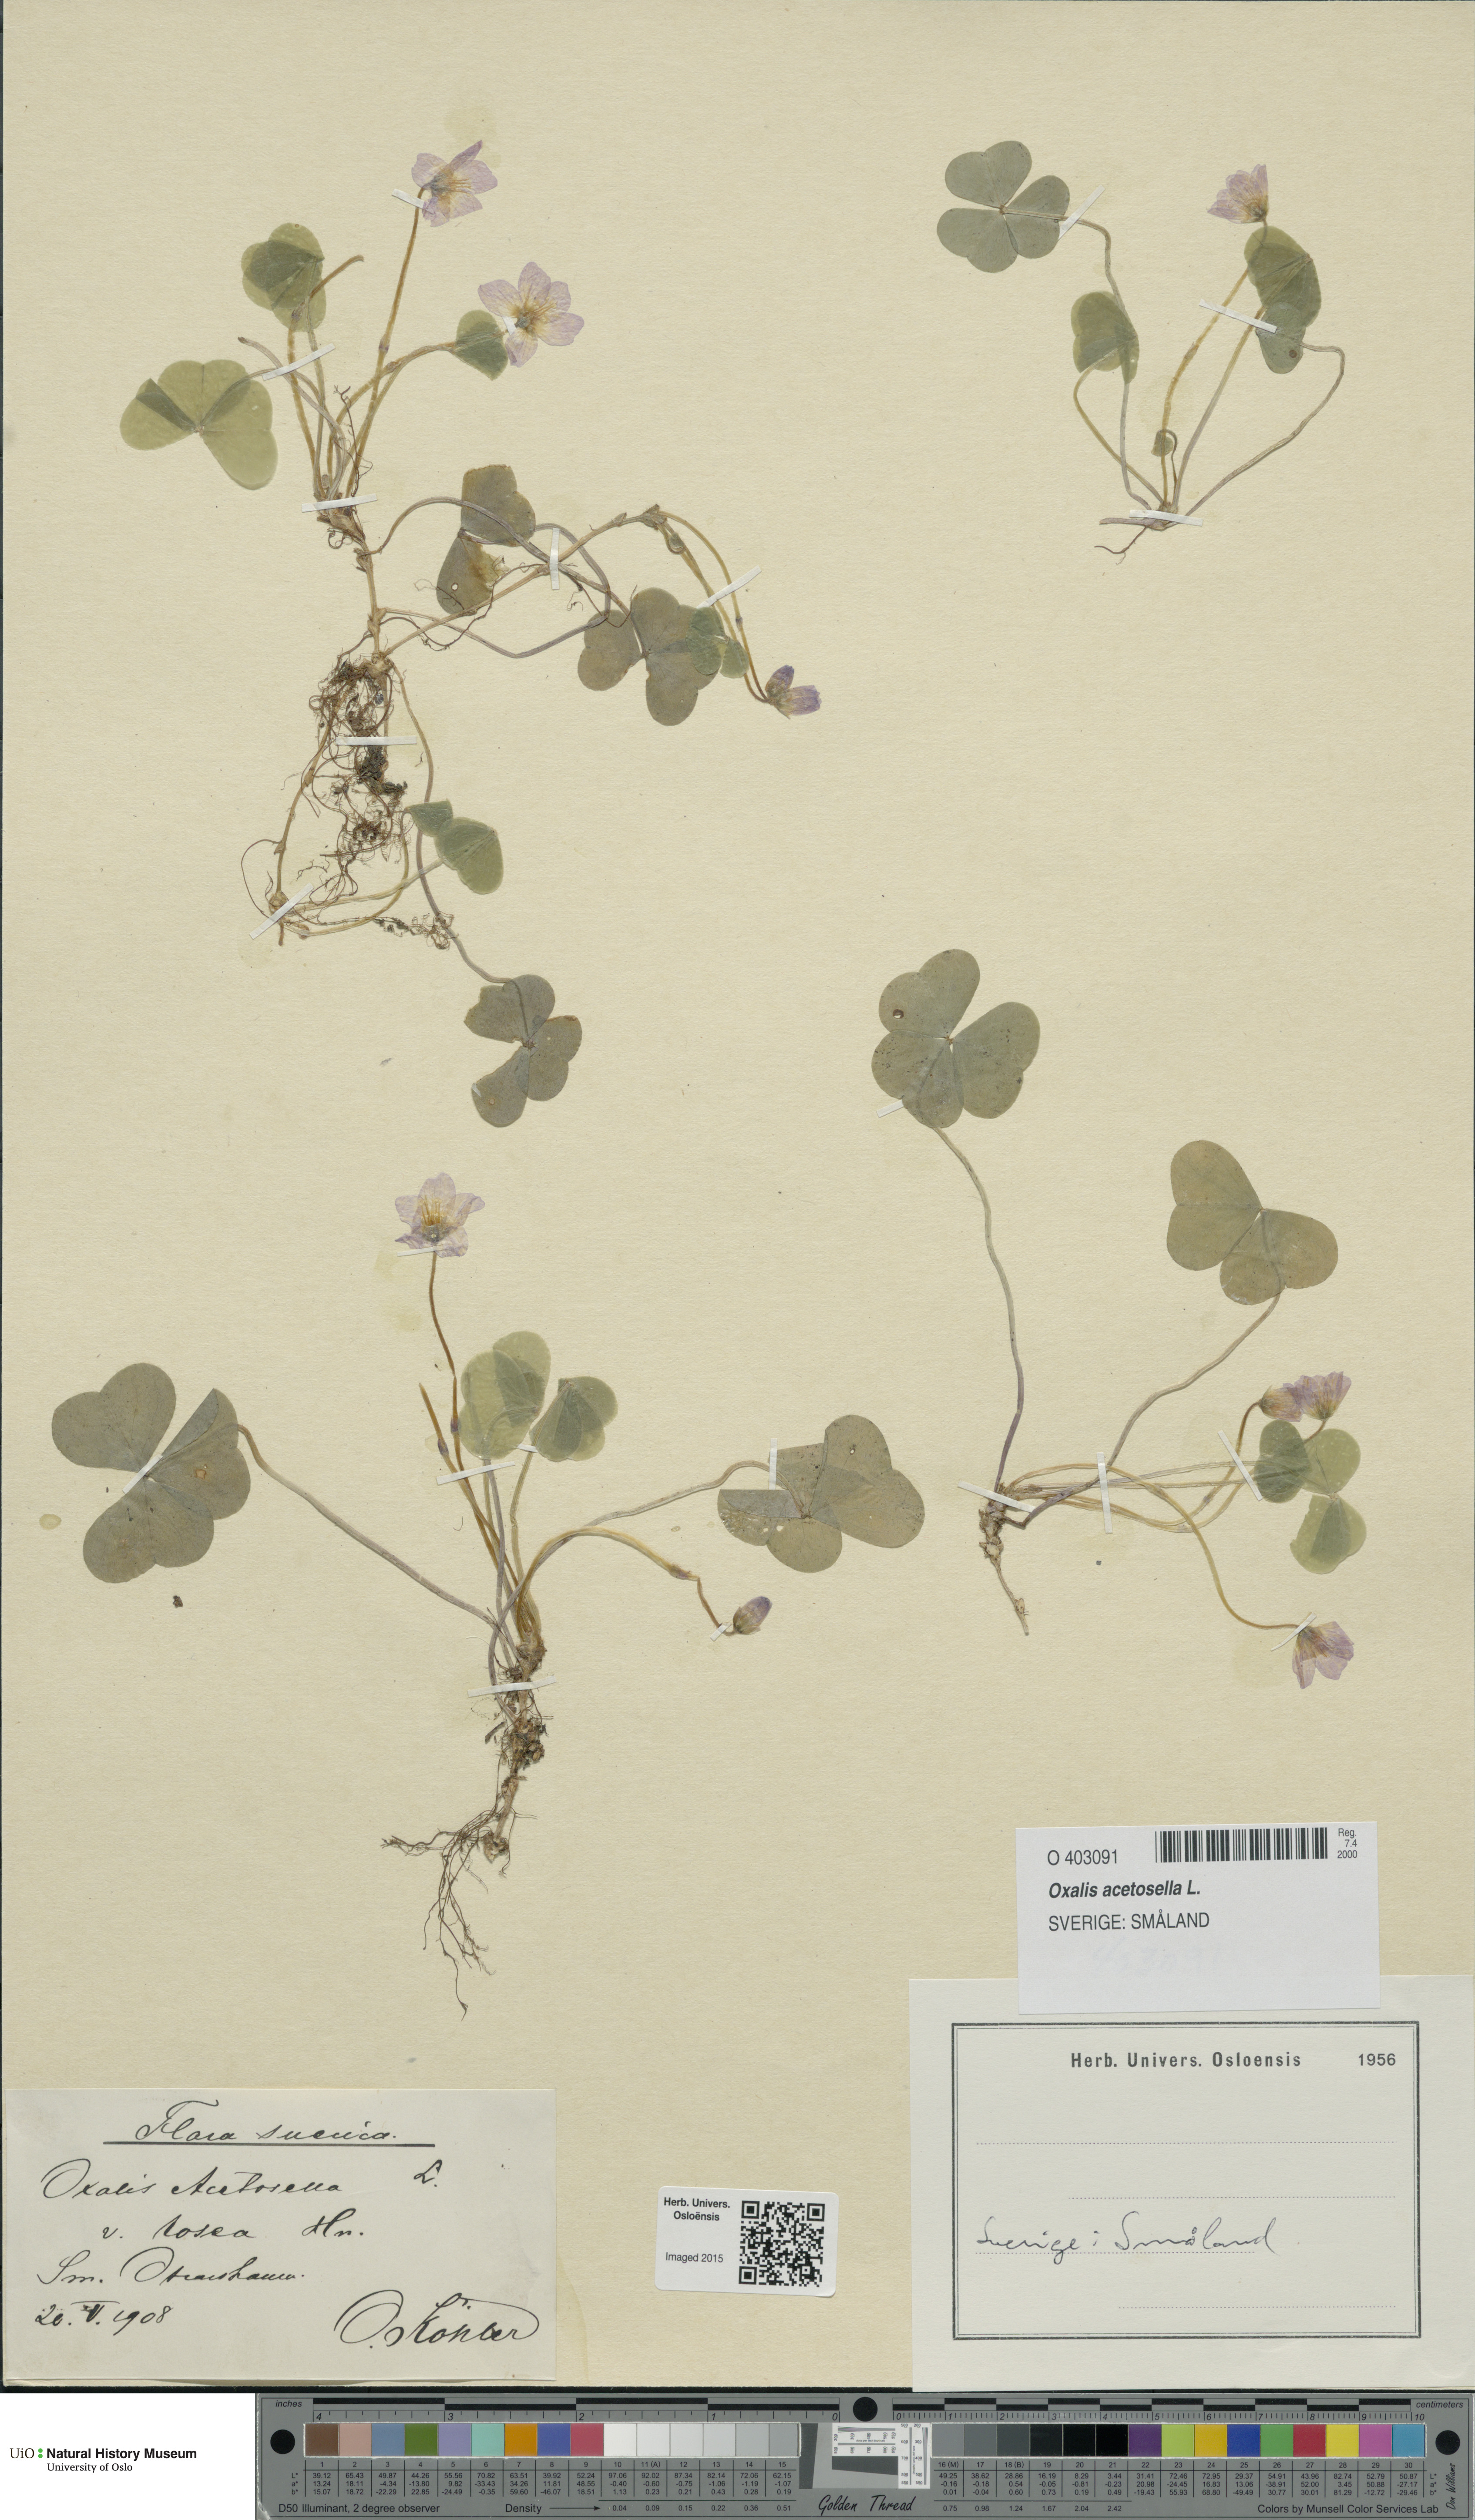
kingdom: Plantae
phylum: Tracheophyta
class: Magnoliopsida
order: Oxalidales
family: Oxalidaceae
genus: Oxalis
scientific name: Oxalis acetosella
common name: Wood-sorrel
